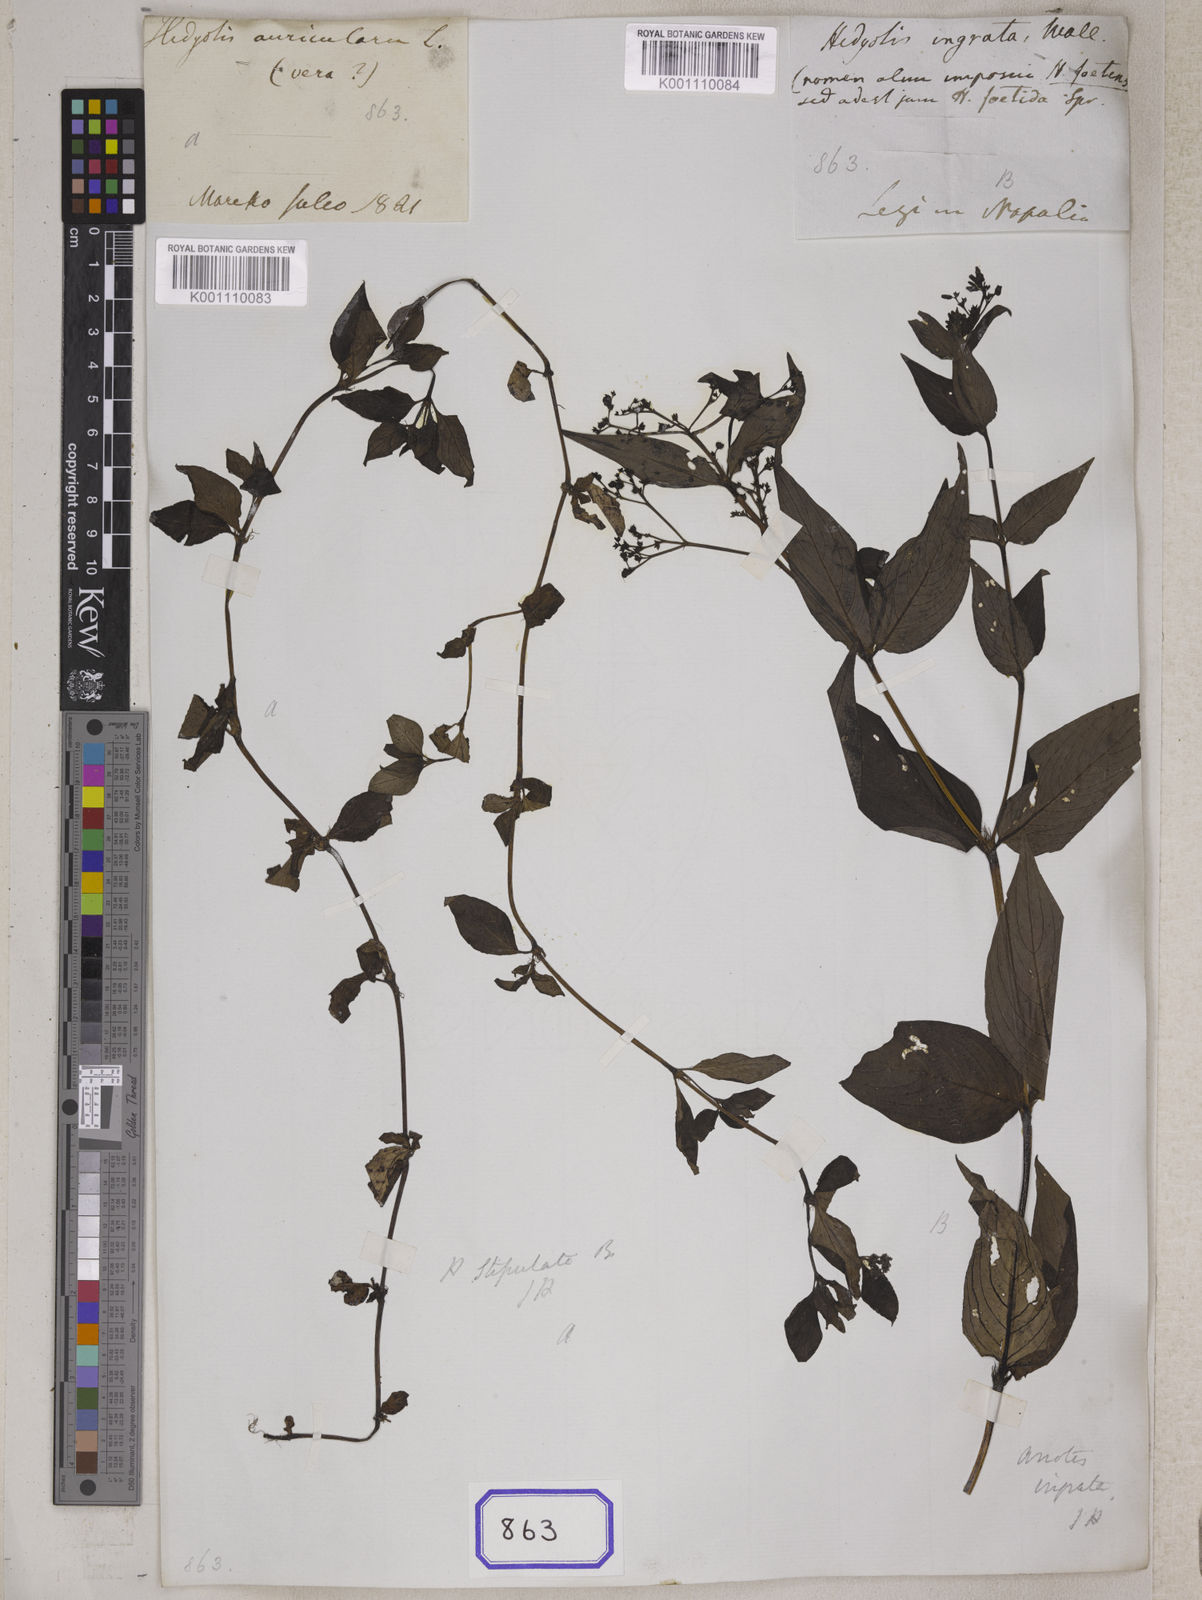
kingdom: Plantae
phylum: Tracheophyta
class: Magnoliopsida
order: Gentianales
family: Rubiaceae
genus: Neanotis
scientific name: Neanotis ingrata
